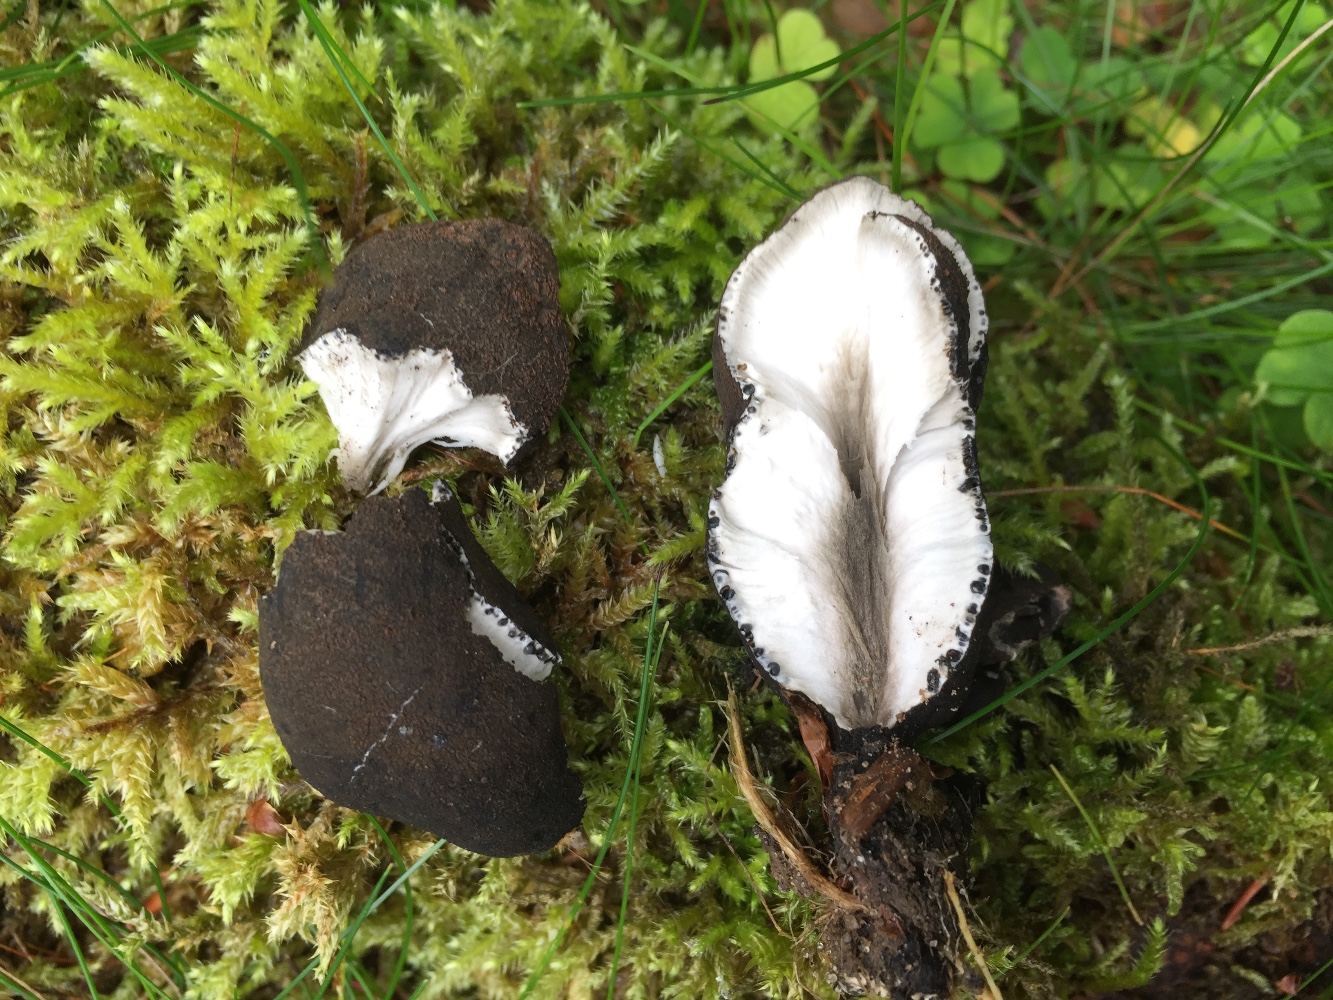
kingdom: Fungi
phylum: Ascomycota
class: Sordariomycetes
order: Xylariales
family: Xylariaceae
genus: Xylaria
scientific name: Xylaria polymorpha
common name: kølle-stødsvamp
